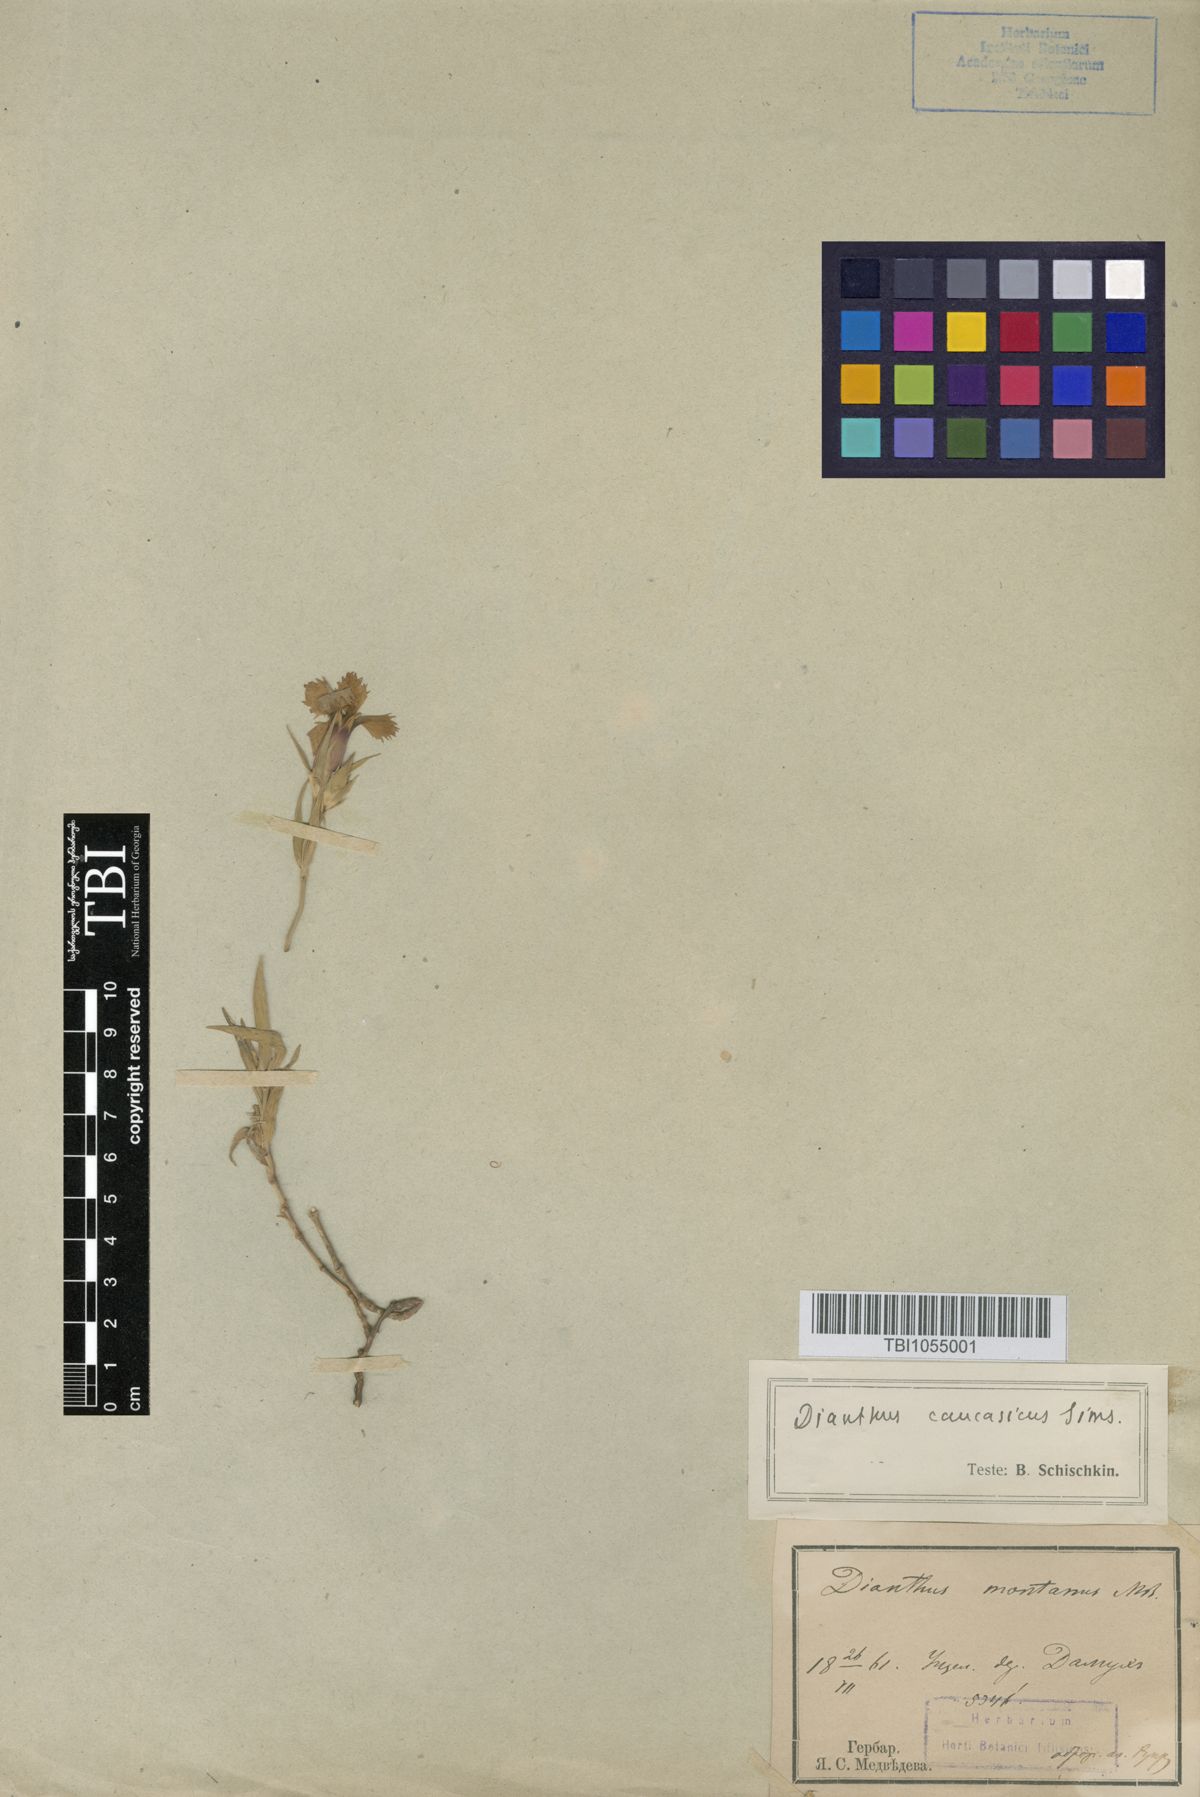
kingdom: Plantae
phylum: Tracheophyta
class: Magnoliopsida
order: Caryophyllales
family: Caryophyllaceae
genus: Dianthus
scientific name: Dianthus caucaseus
